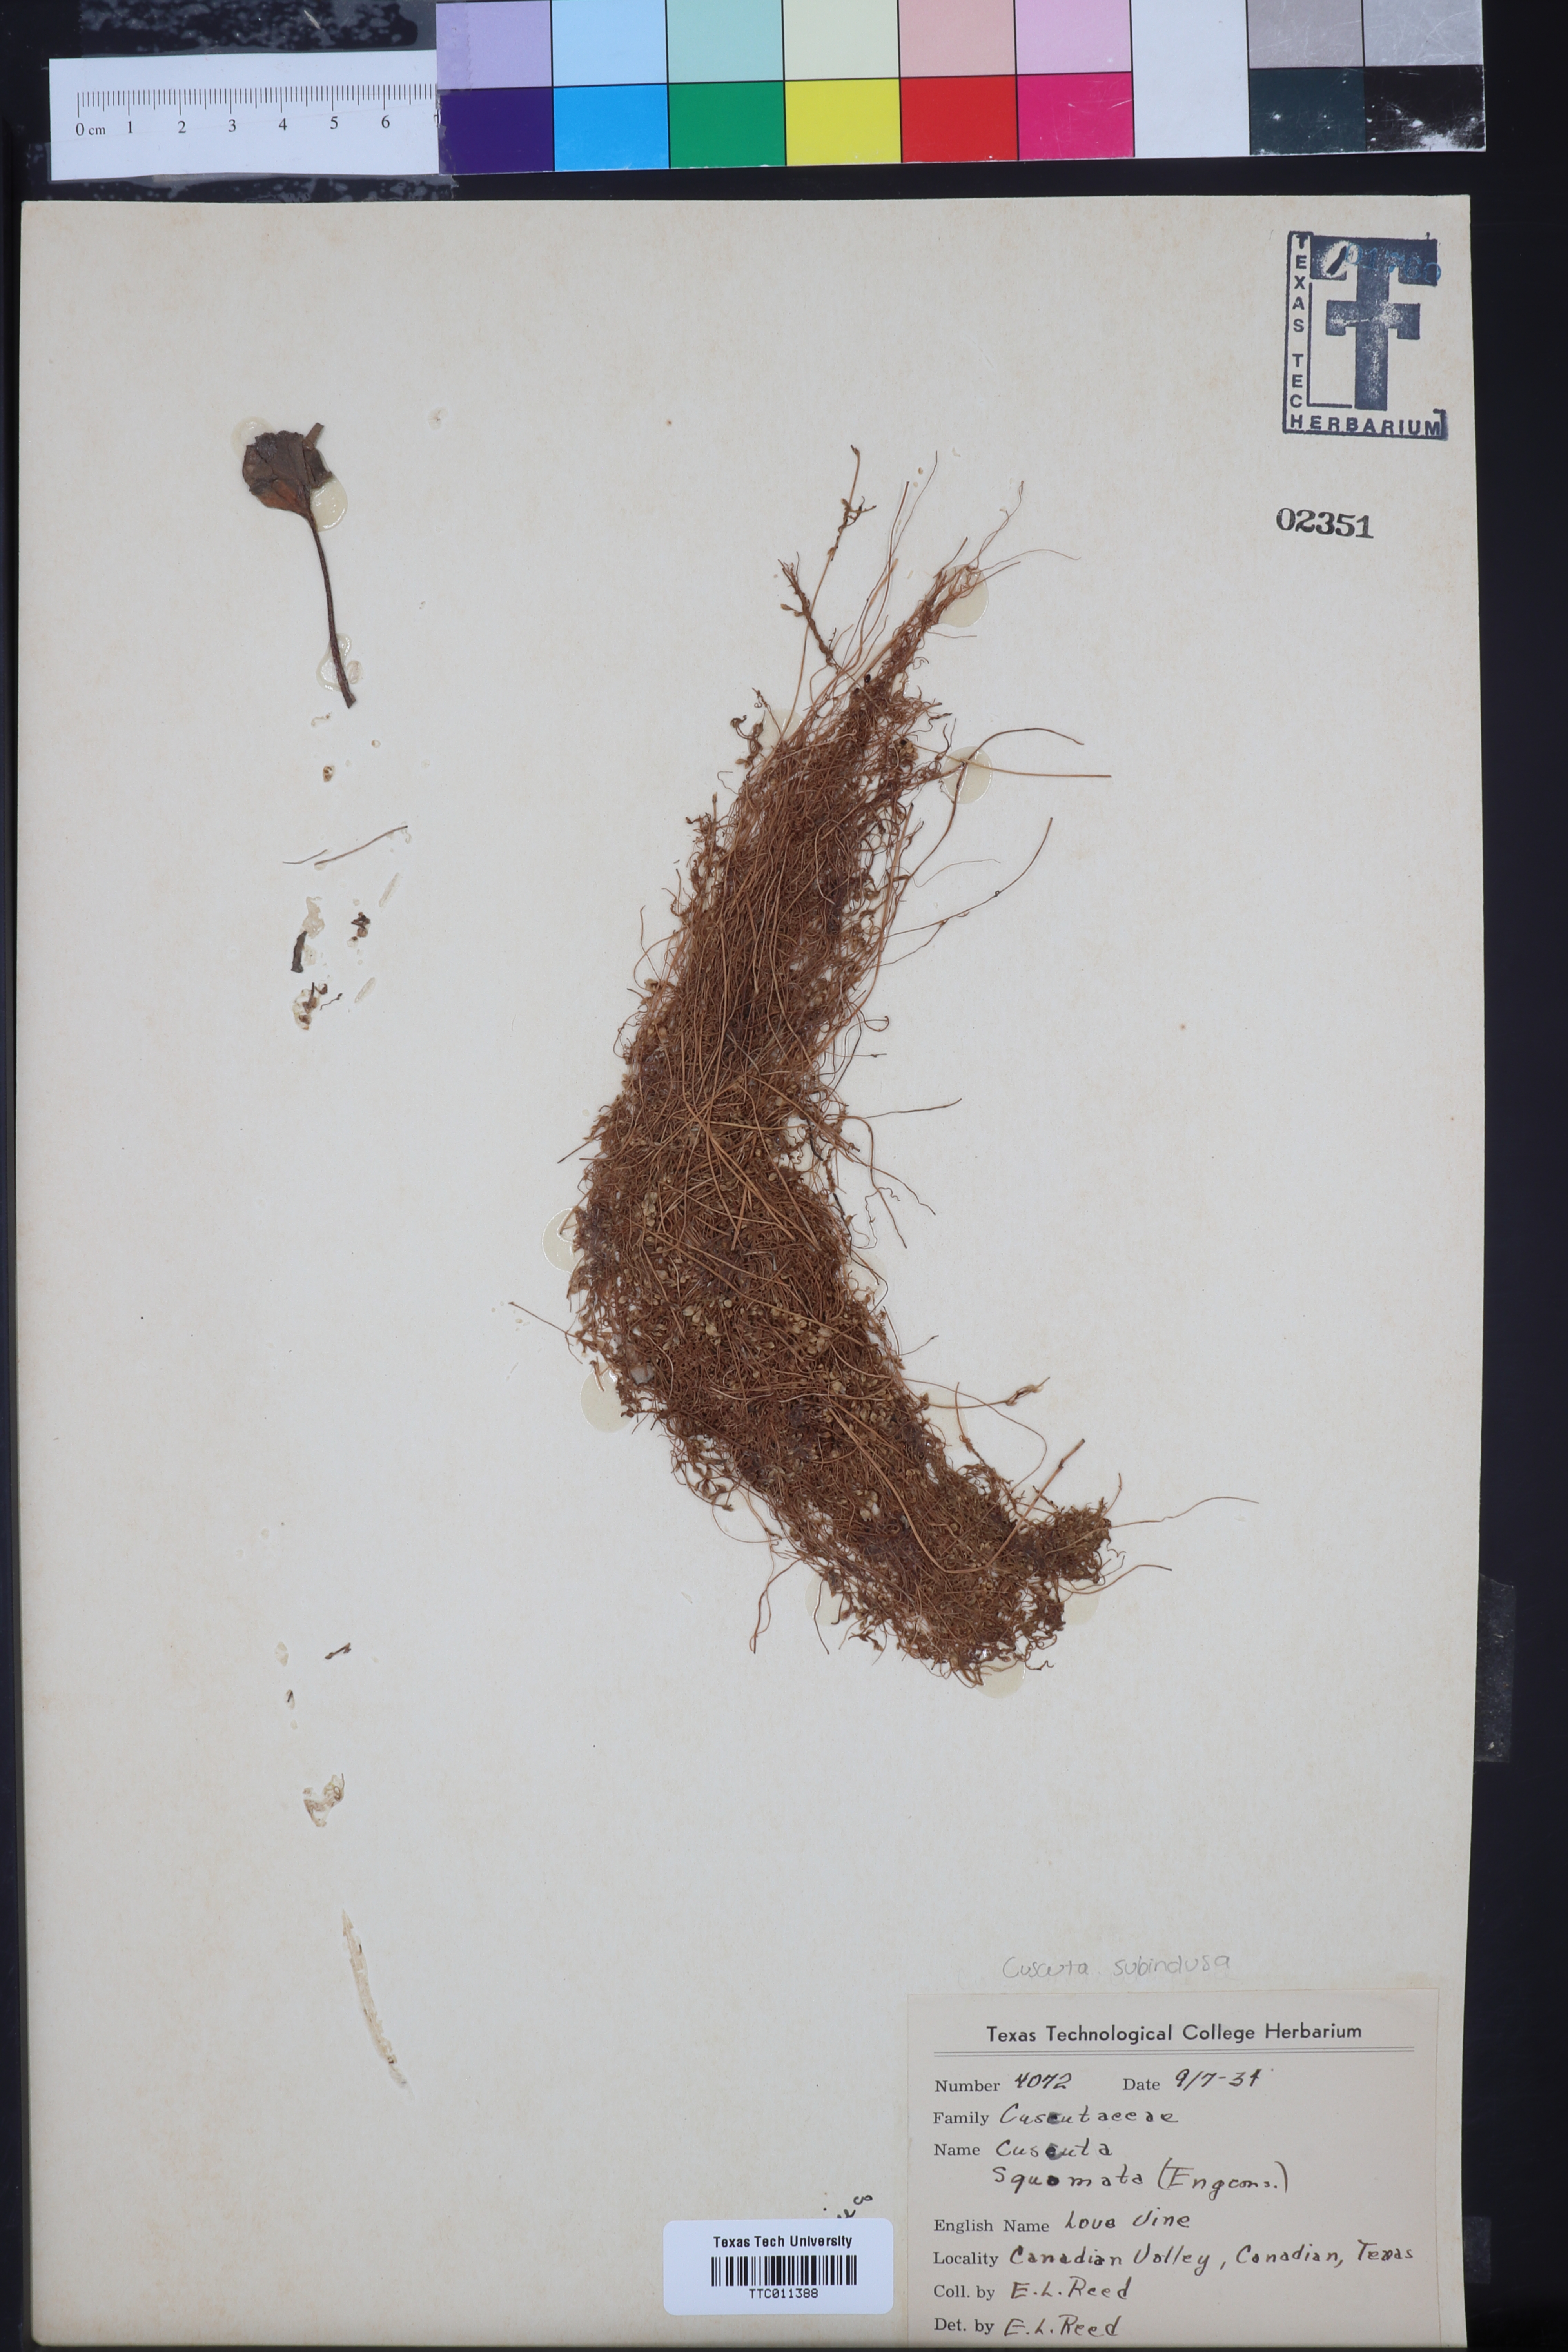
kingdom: Plantae
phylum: Tracheophyta
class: Magnoliopsida
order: Solanales
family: Convolvulaceae
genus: Cuscuta
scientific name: Cuscuta squamata
